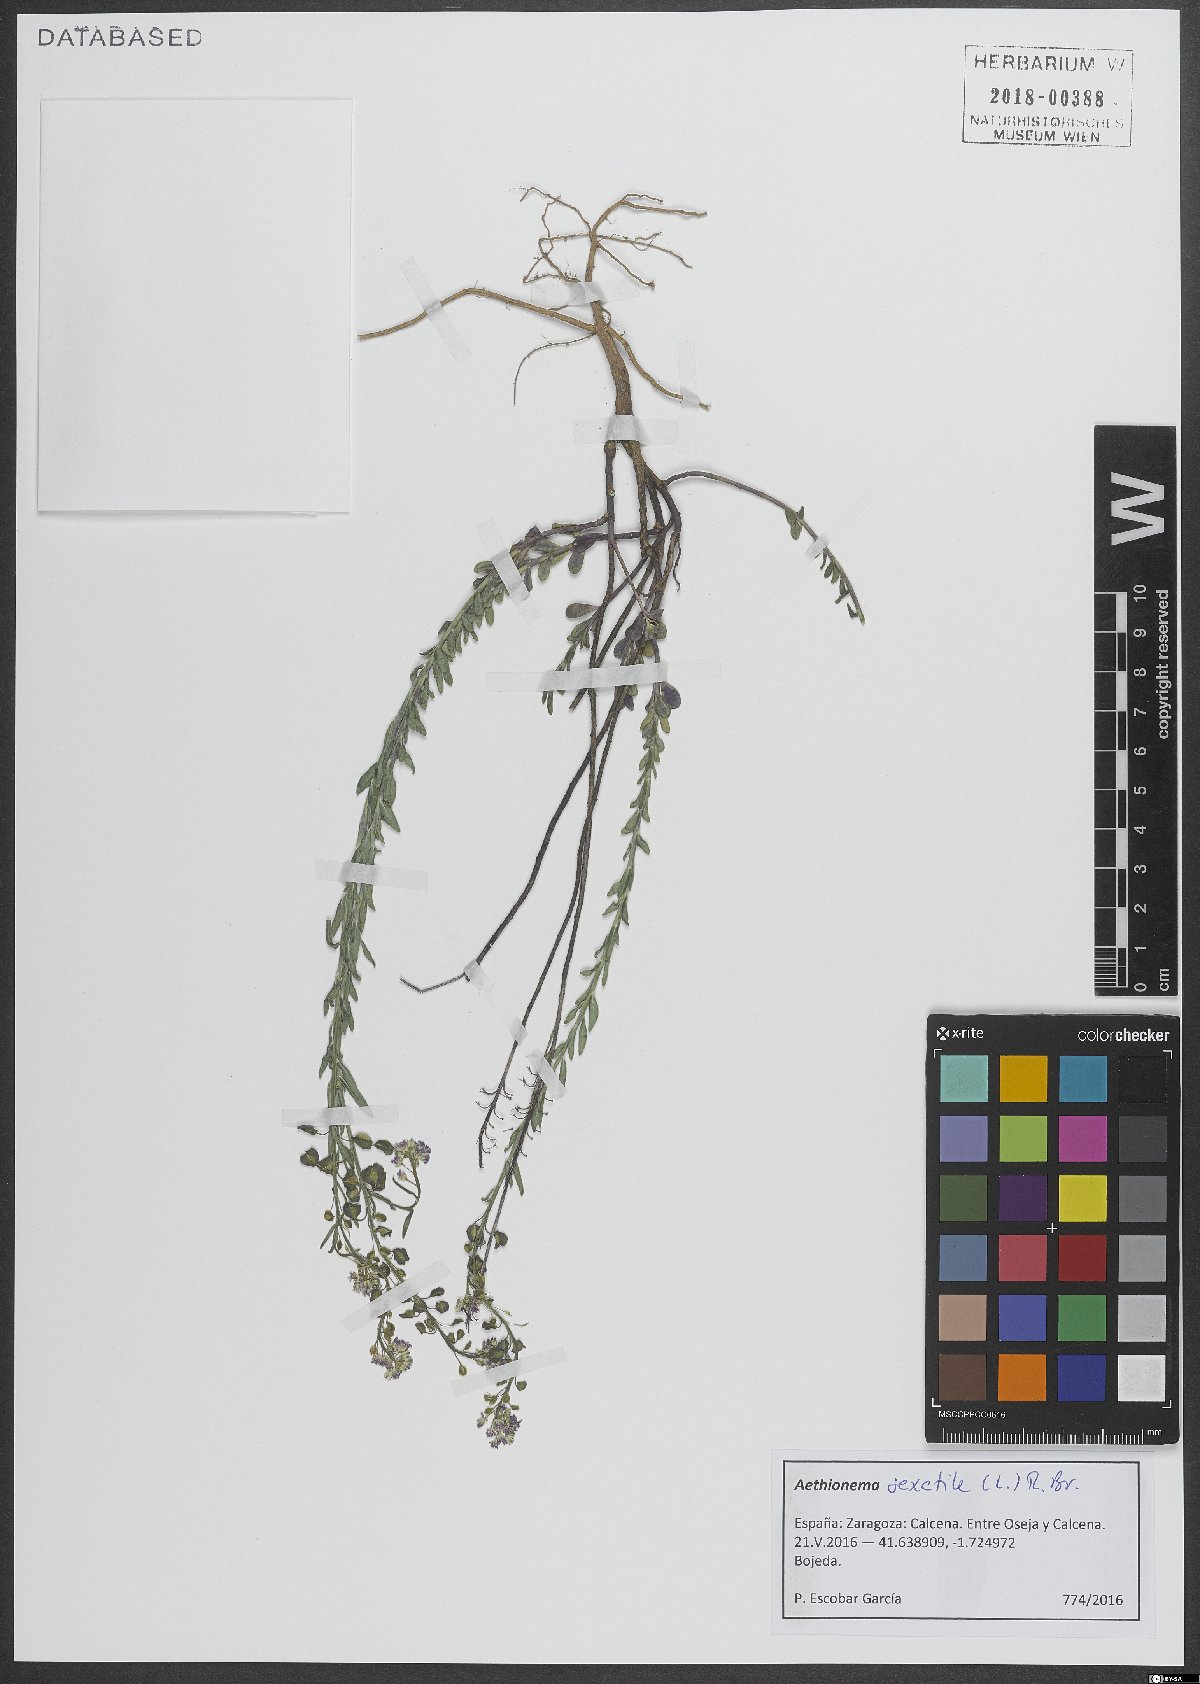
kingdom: Plantae
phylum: Tracheophyta
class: Magnoliopsida
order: Brassicales
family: Brassicaceae
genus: Aethionema
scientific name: Aethionema saxatile
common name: Burnt candytuft
